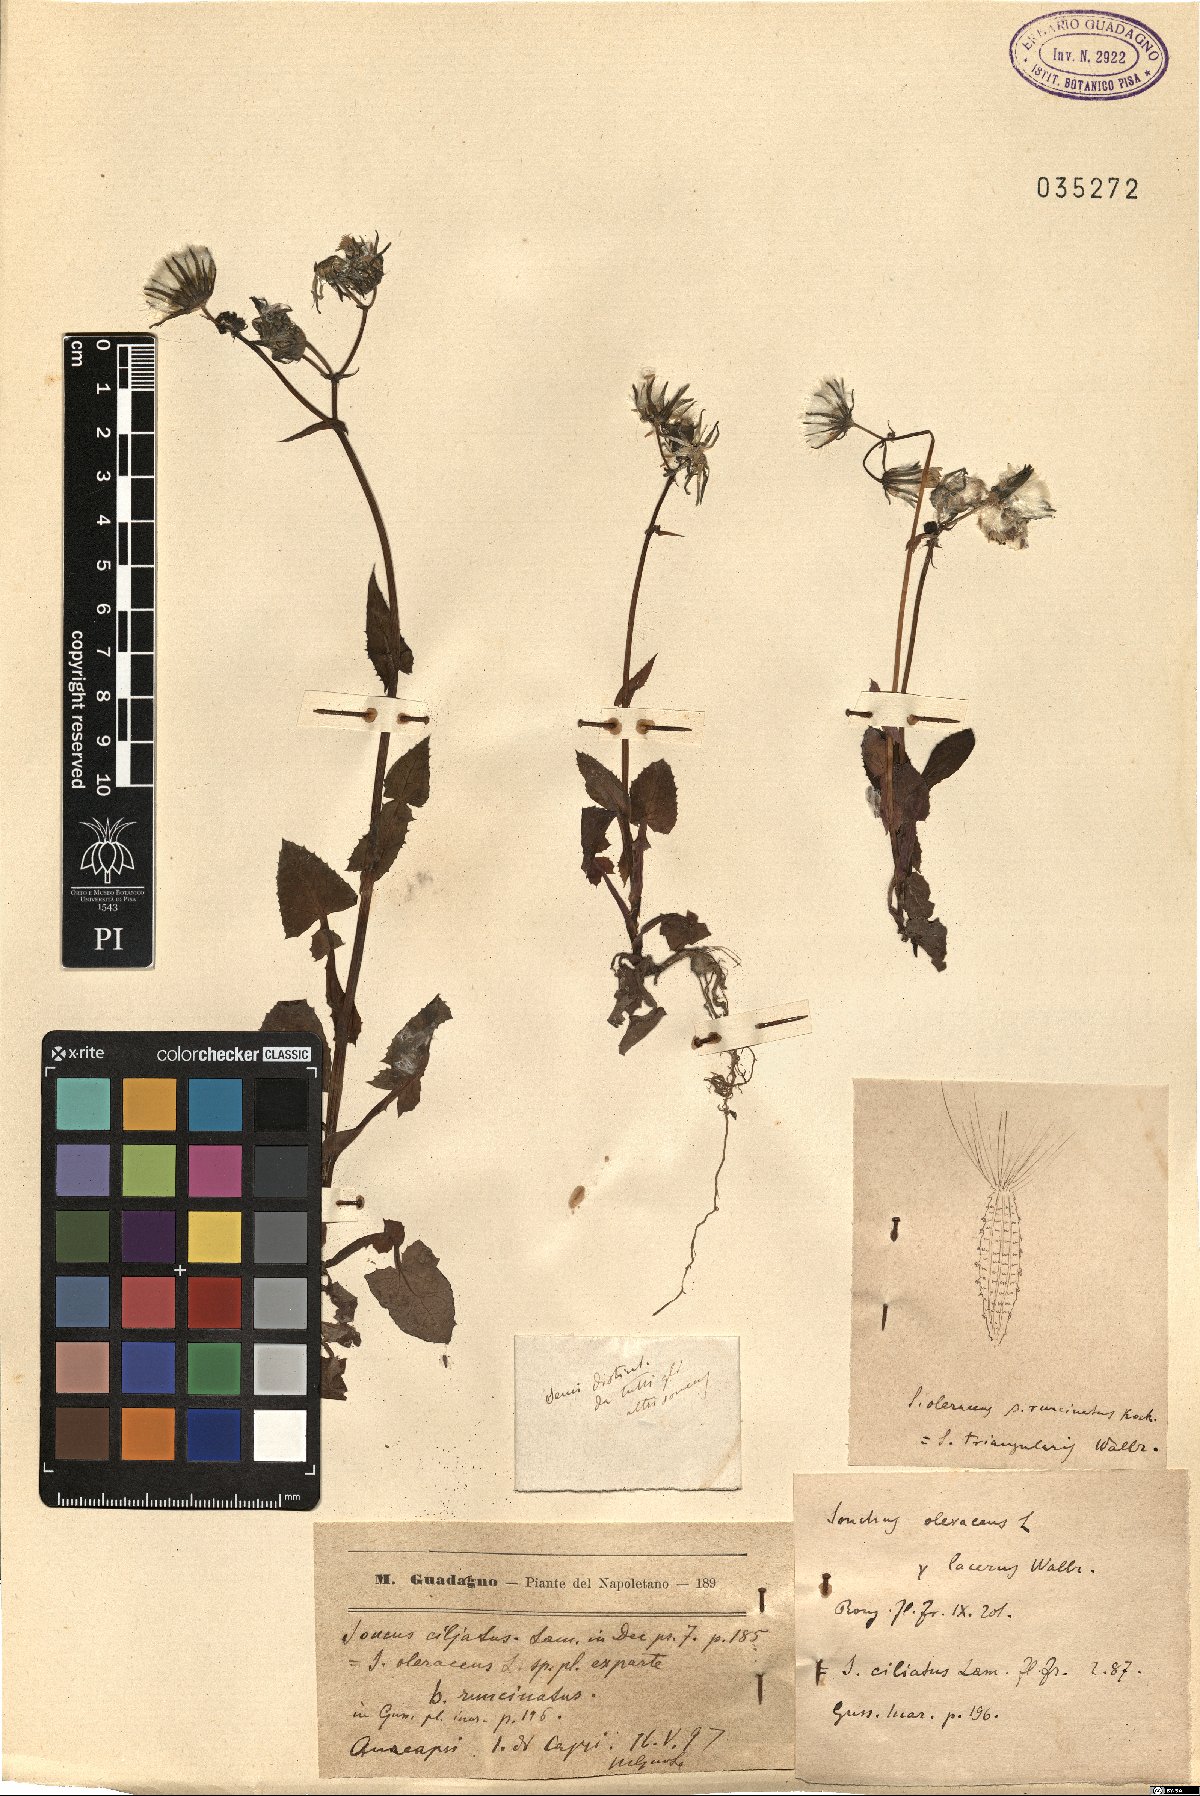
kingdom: Plantae
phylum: Tracheophyta
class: Magnoliopsida
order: Asterales
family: Asteraceae
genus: Sonchus
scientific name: Sonchus oleraceus
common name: Common sowthistle
